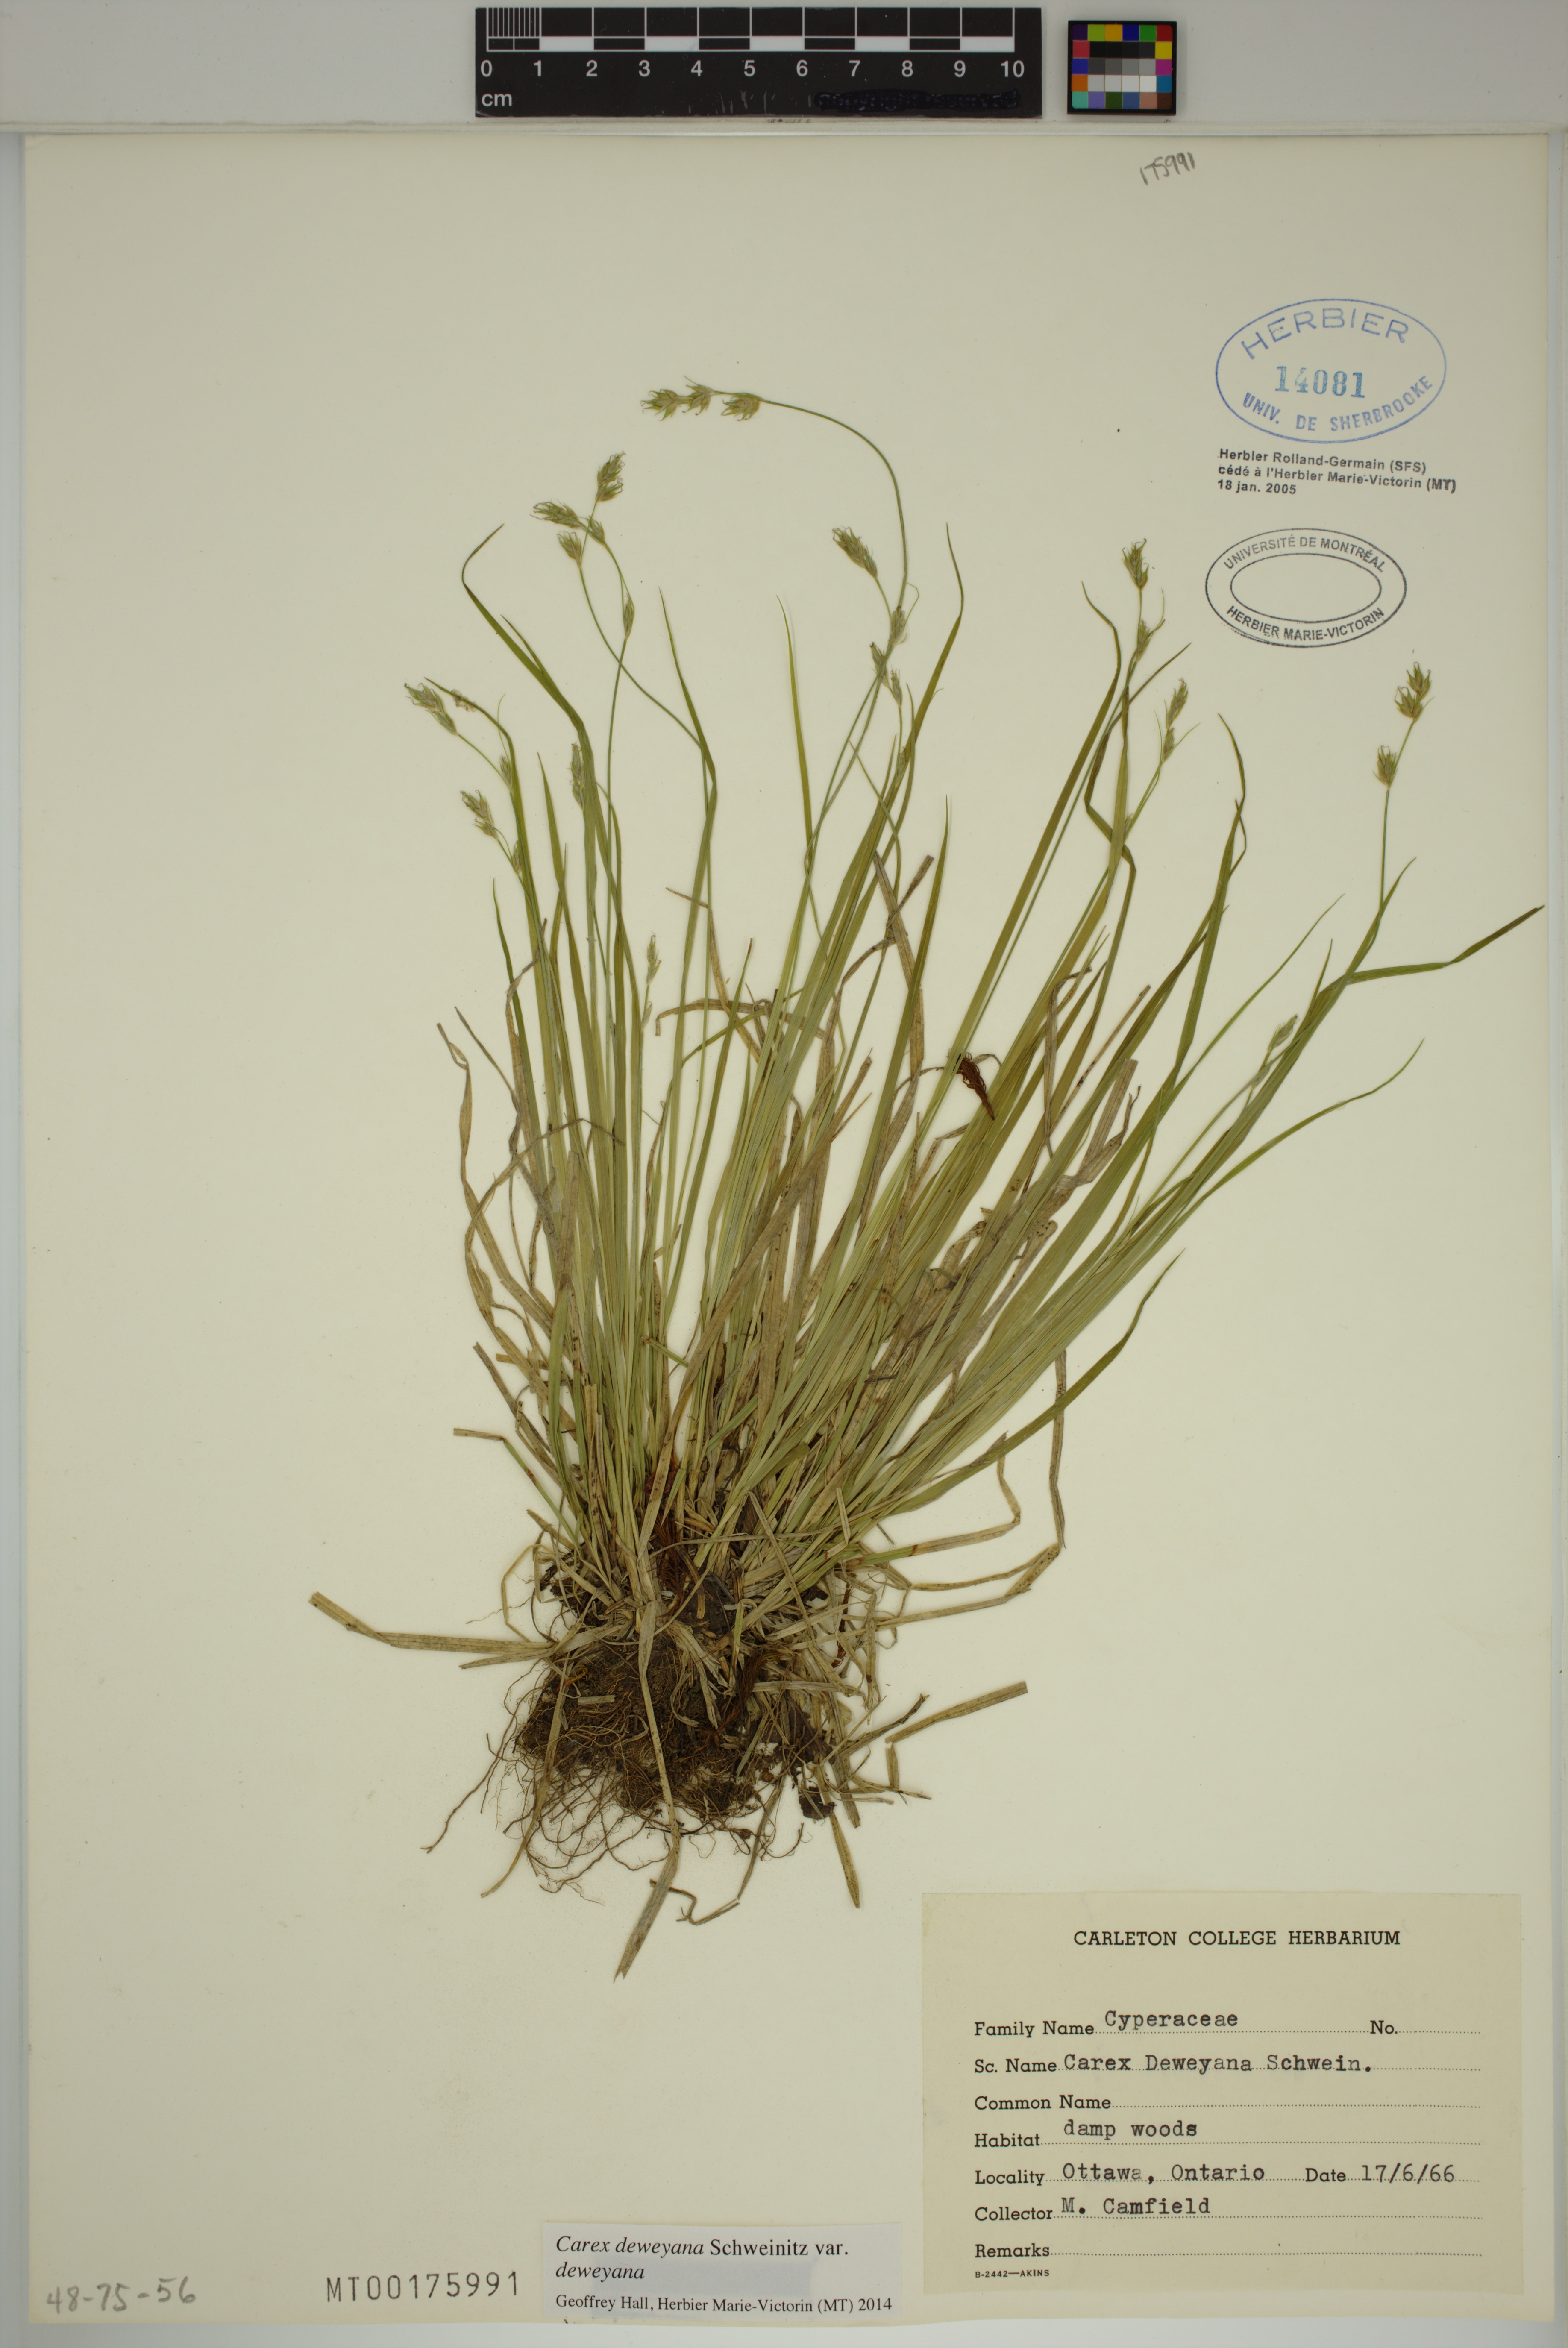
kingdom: Plantae
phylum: Tracheophyta
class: Liliopsida
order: Poales
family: Cyperaceae
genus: Carex
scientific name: Carex deweyana
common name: Dewey's sedge
